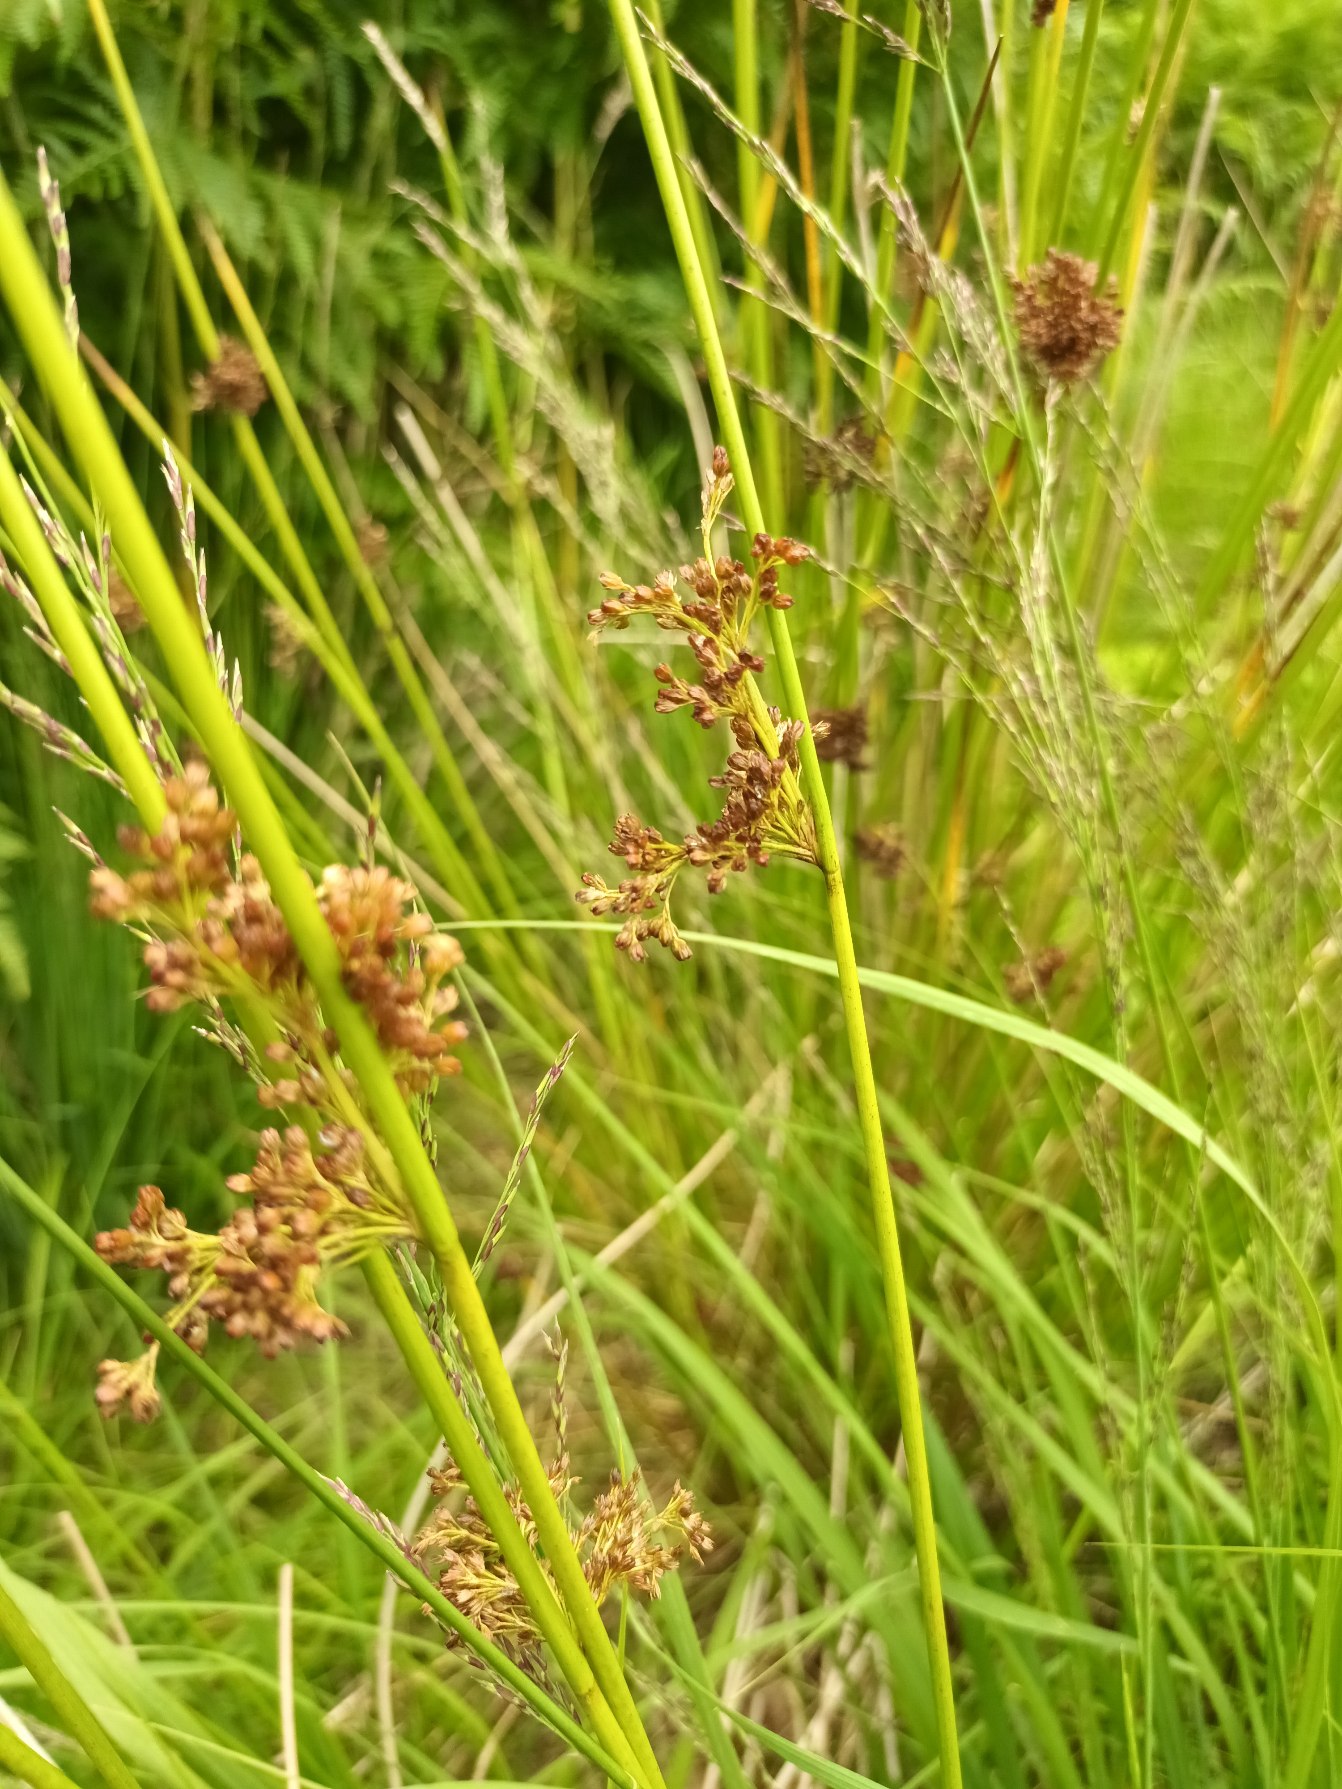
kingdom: Plantae
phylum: Tracheophyta
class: Liliopsida
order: Poales
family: Juncaceae
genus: Juncus
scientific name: Juncus effusus
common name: Lyse-siv
